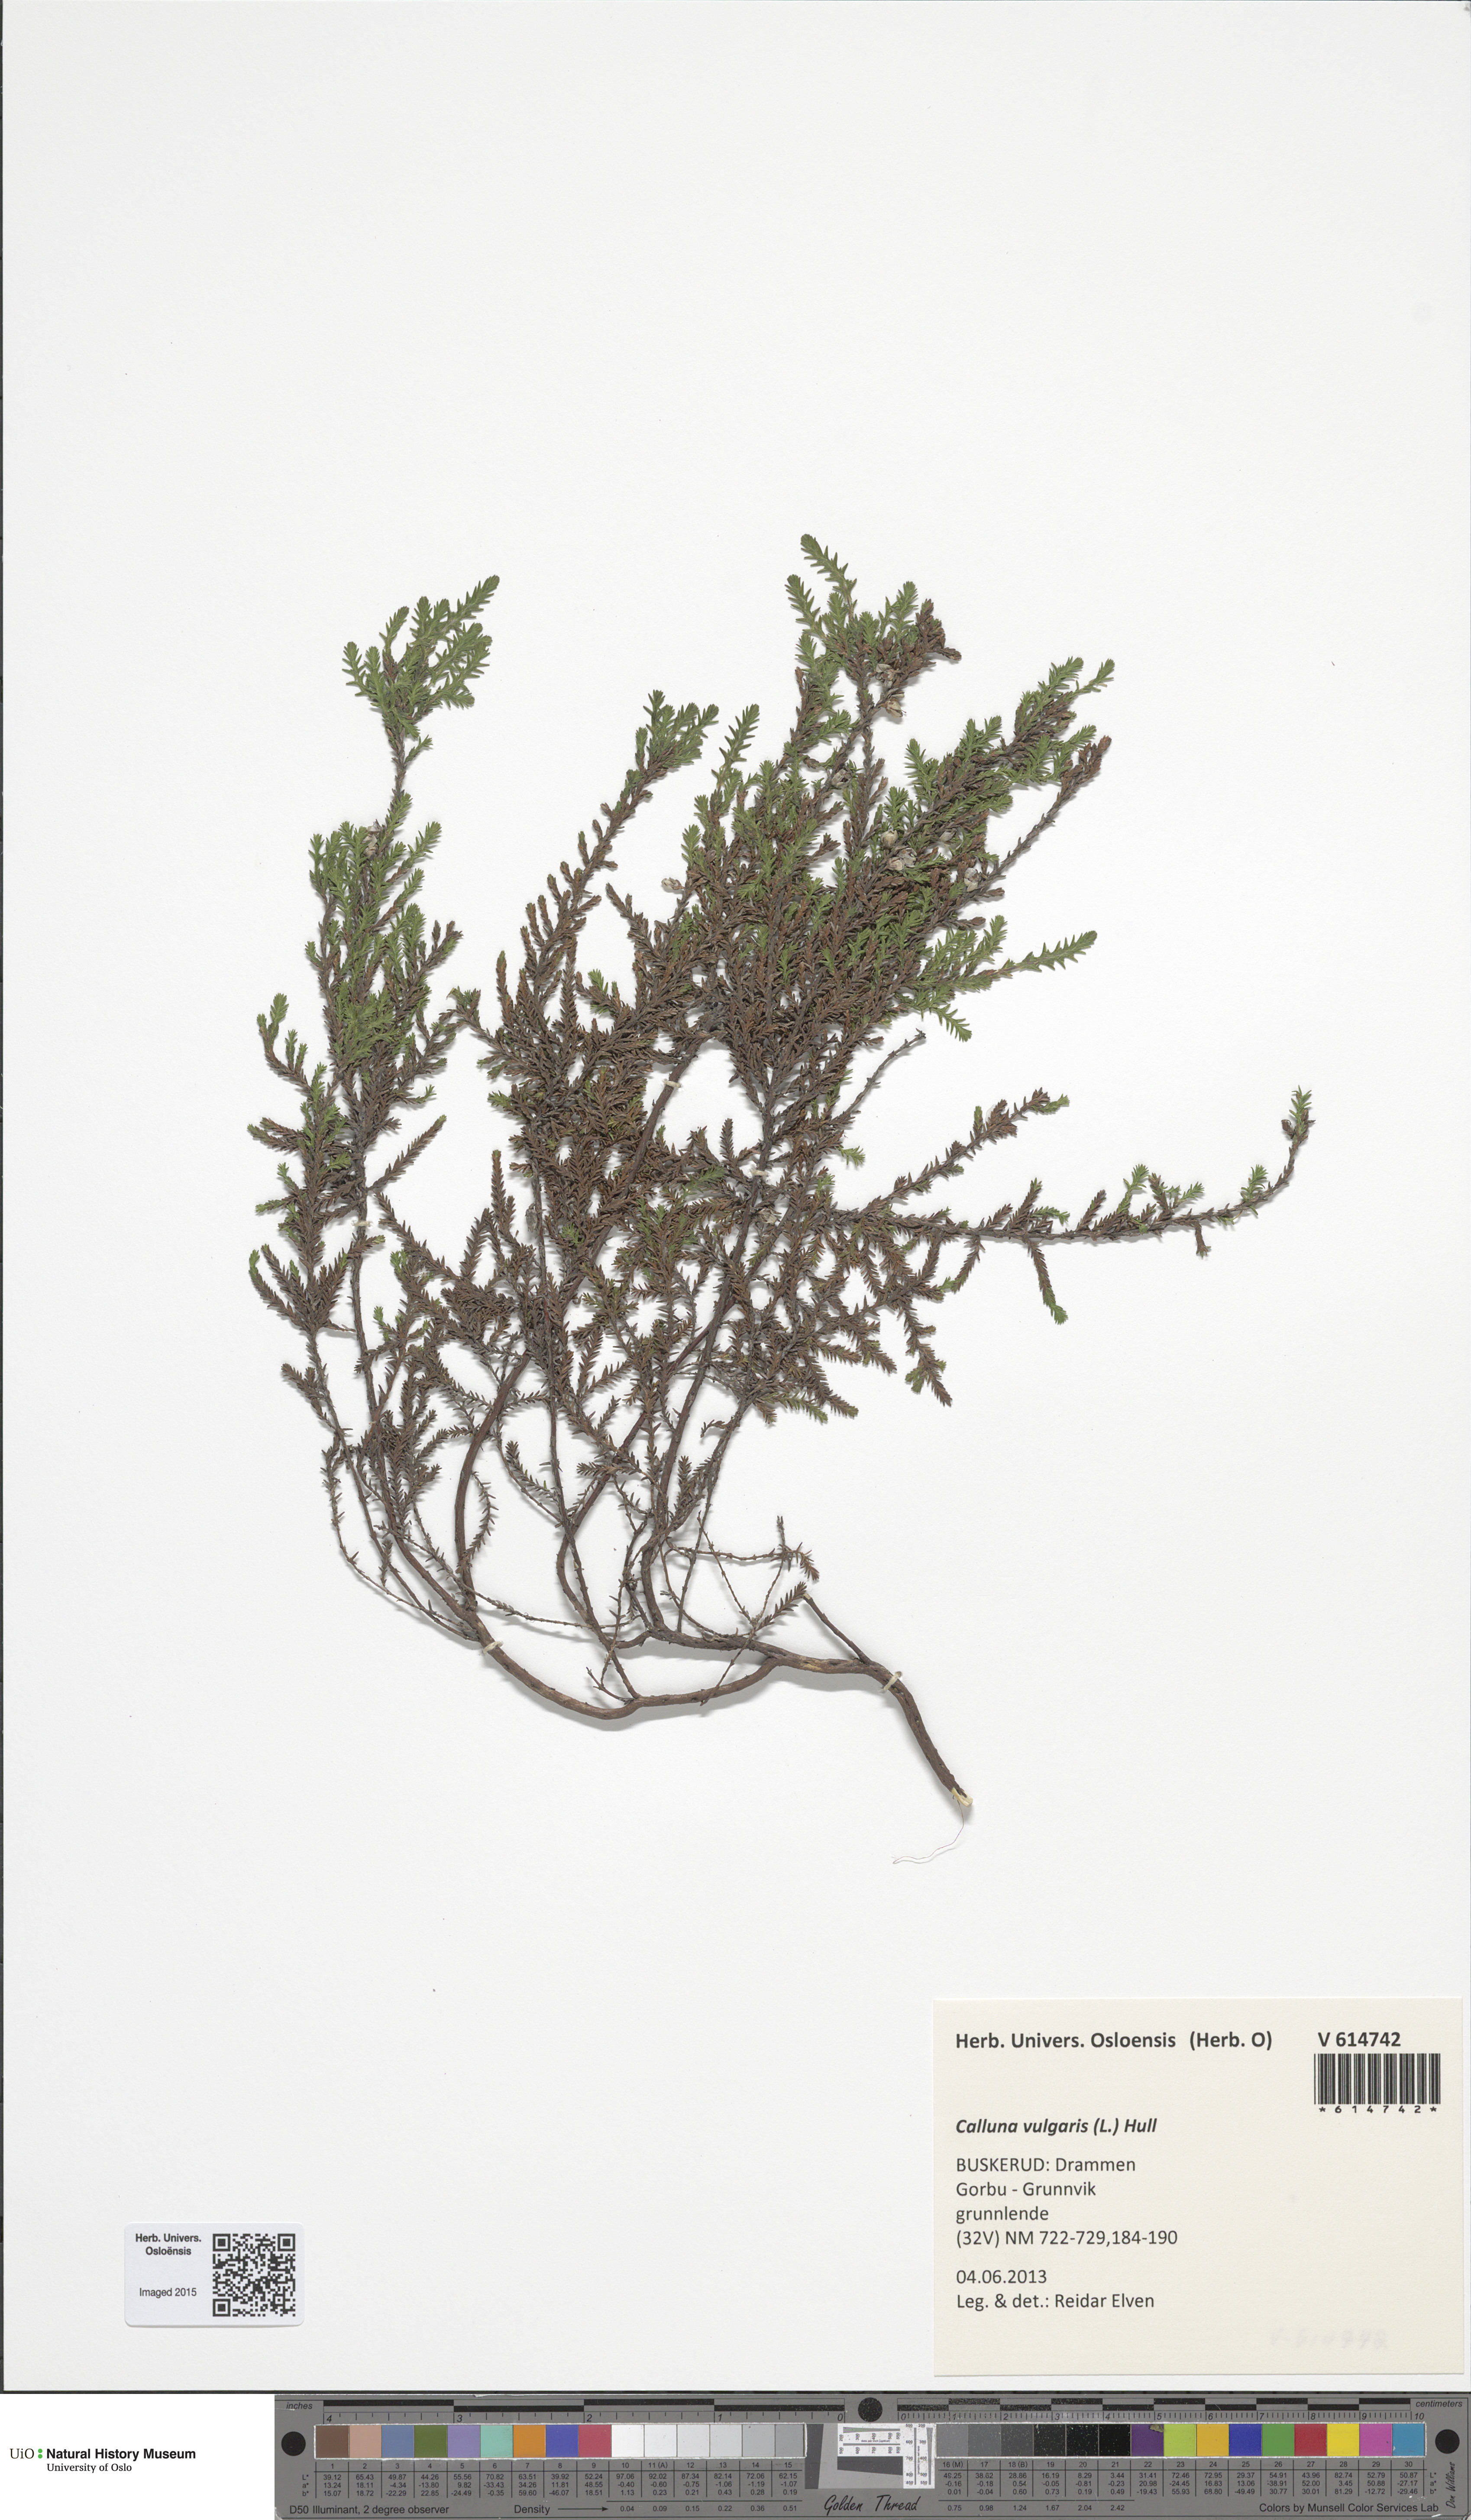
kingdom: Plantae
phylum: Tracheophyta
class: Magnoliopsida
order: Ericales
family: Ericaceae
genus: Calluna
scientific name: Calluna vulgaris
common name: Heather
